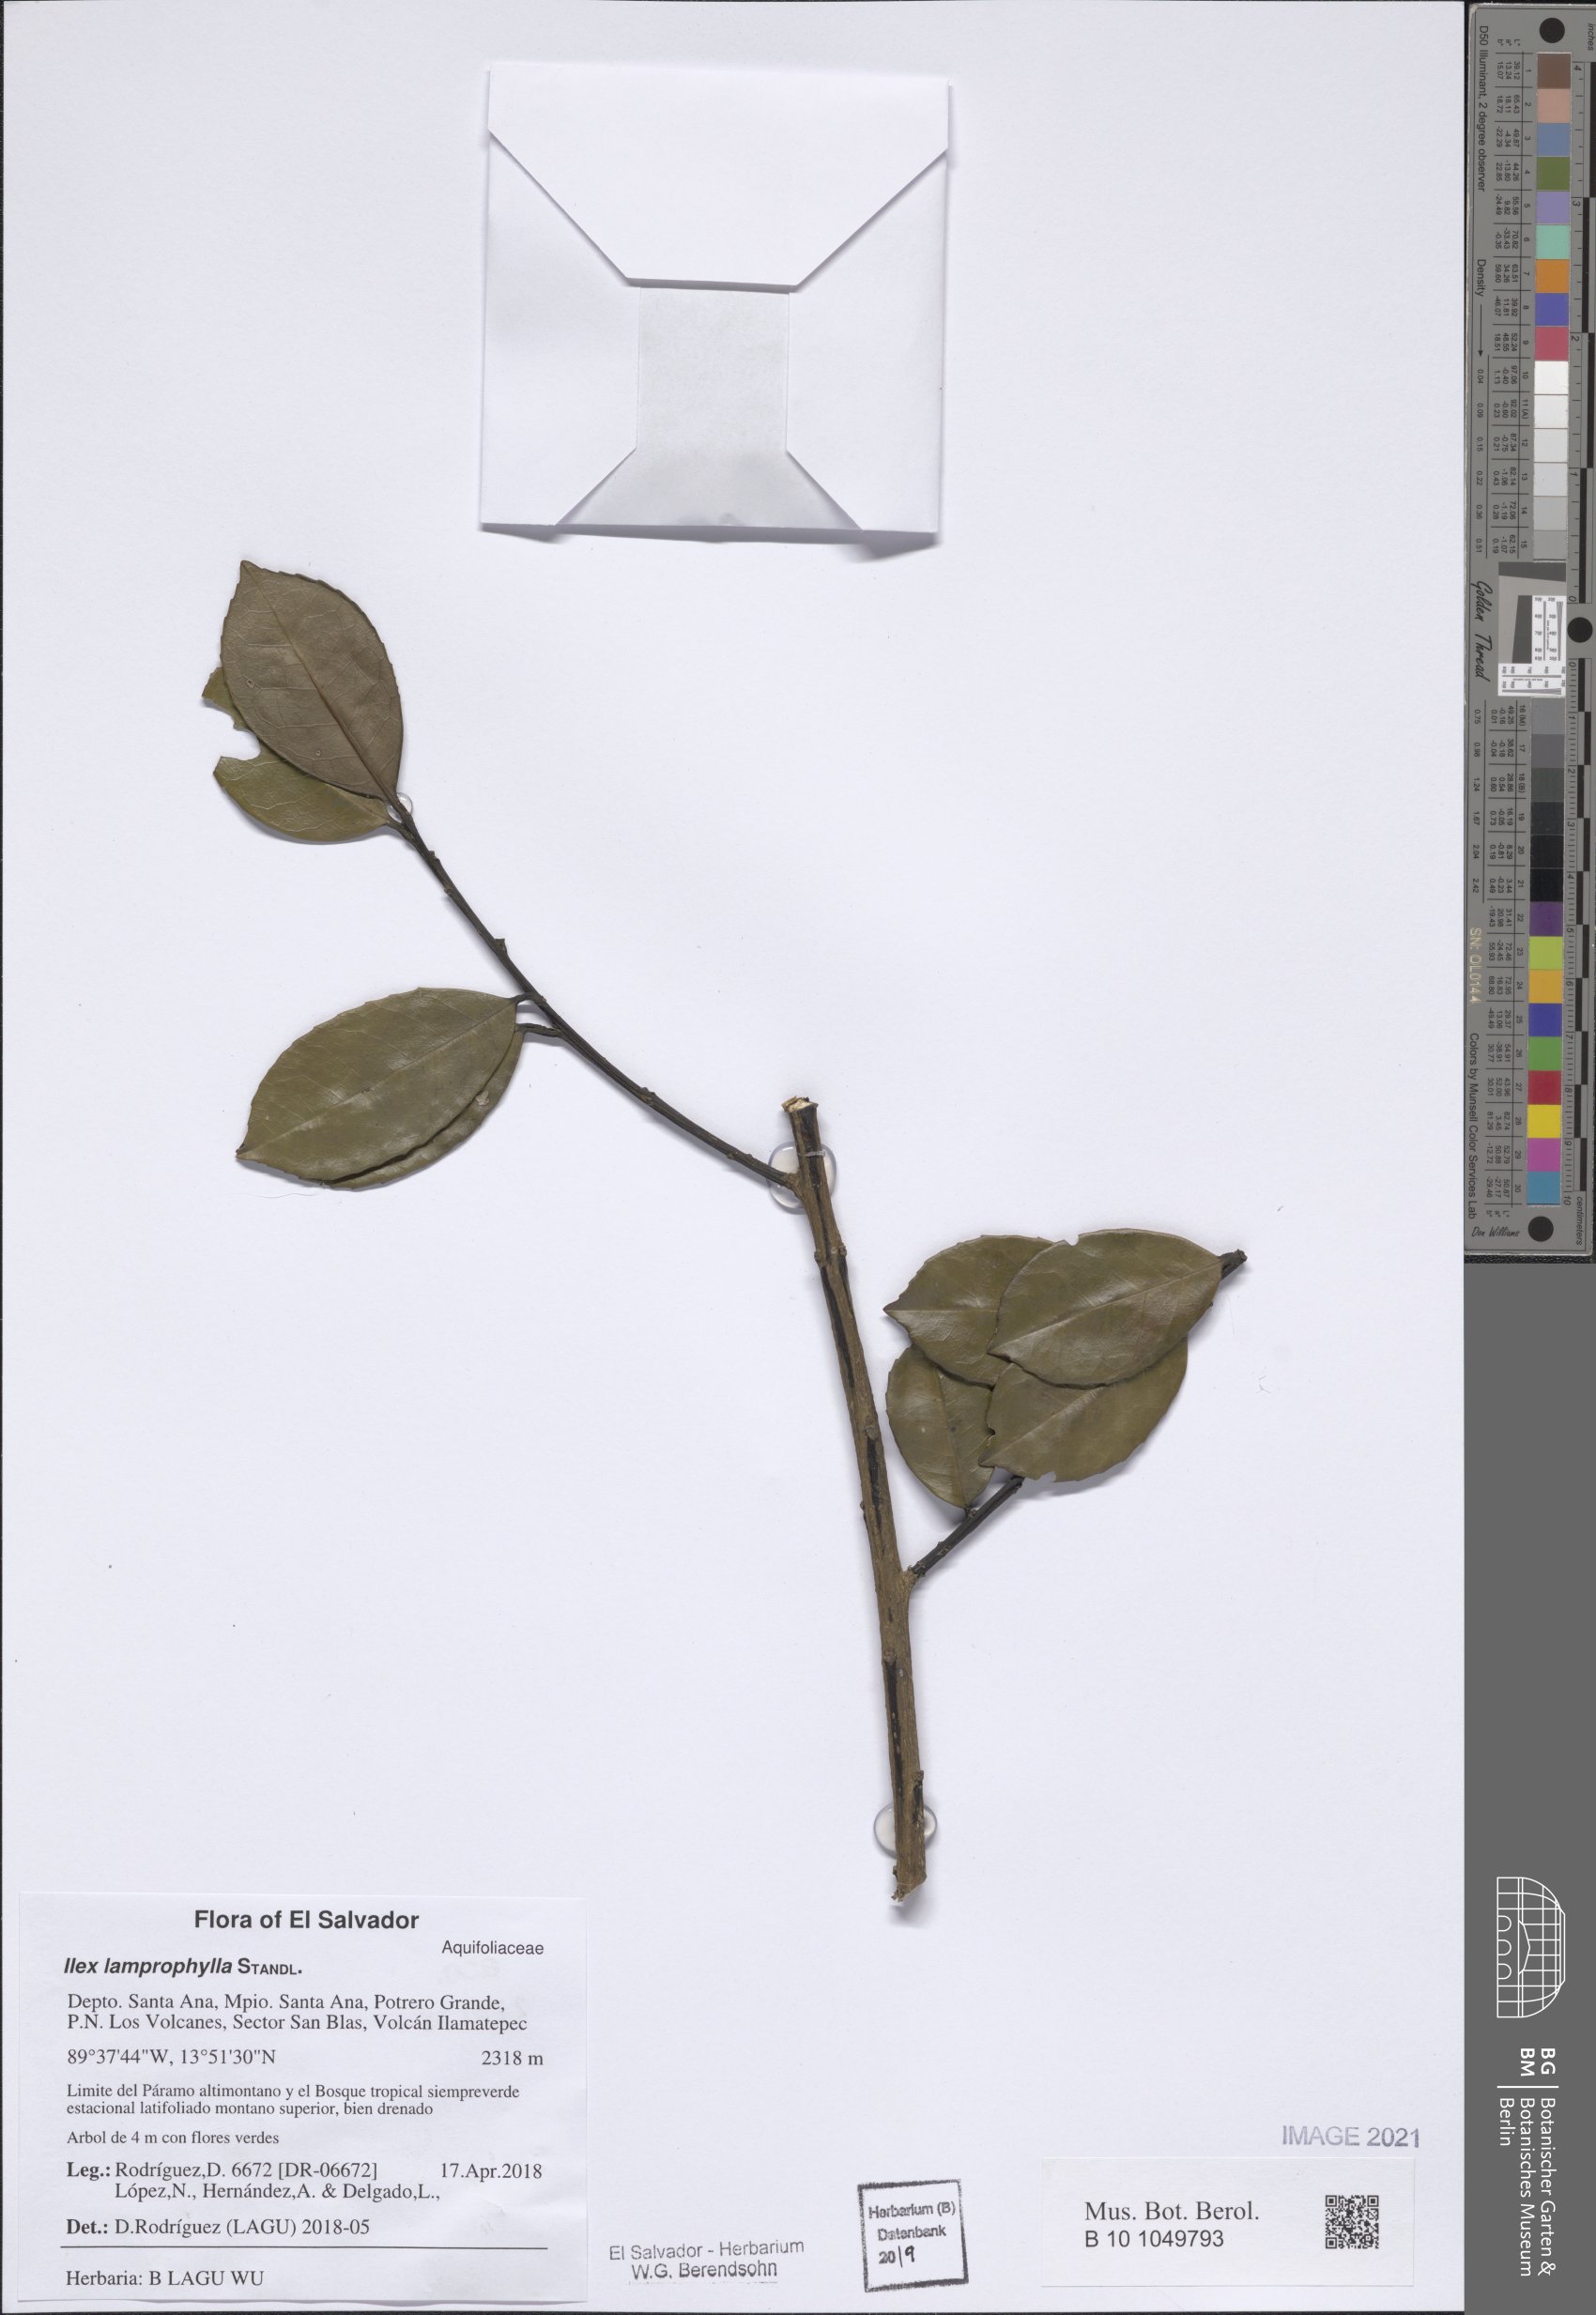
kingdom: Plantae
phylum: Tracheophyta
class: Magnoliopsida
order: Aquifoliales
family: Aquifoliaceae
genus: Ilex
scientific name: Ilex lamprophylla
